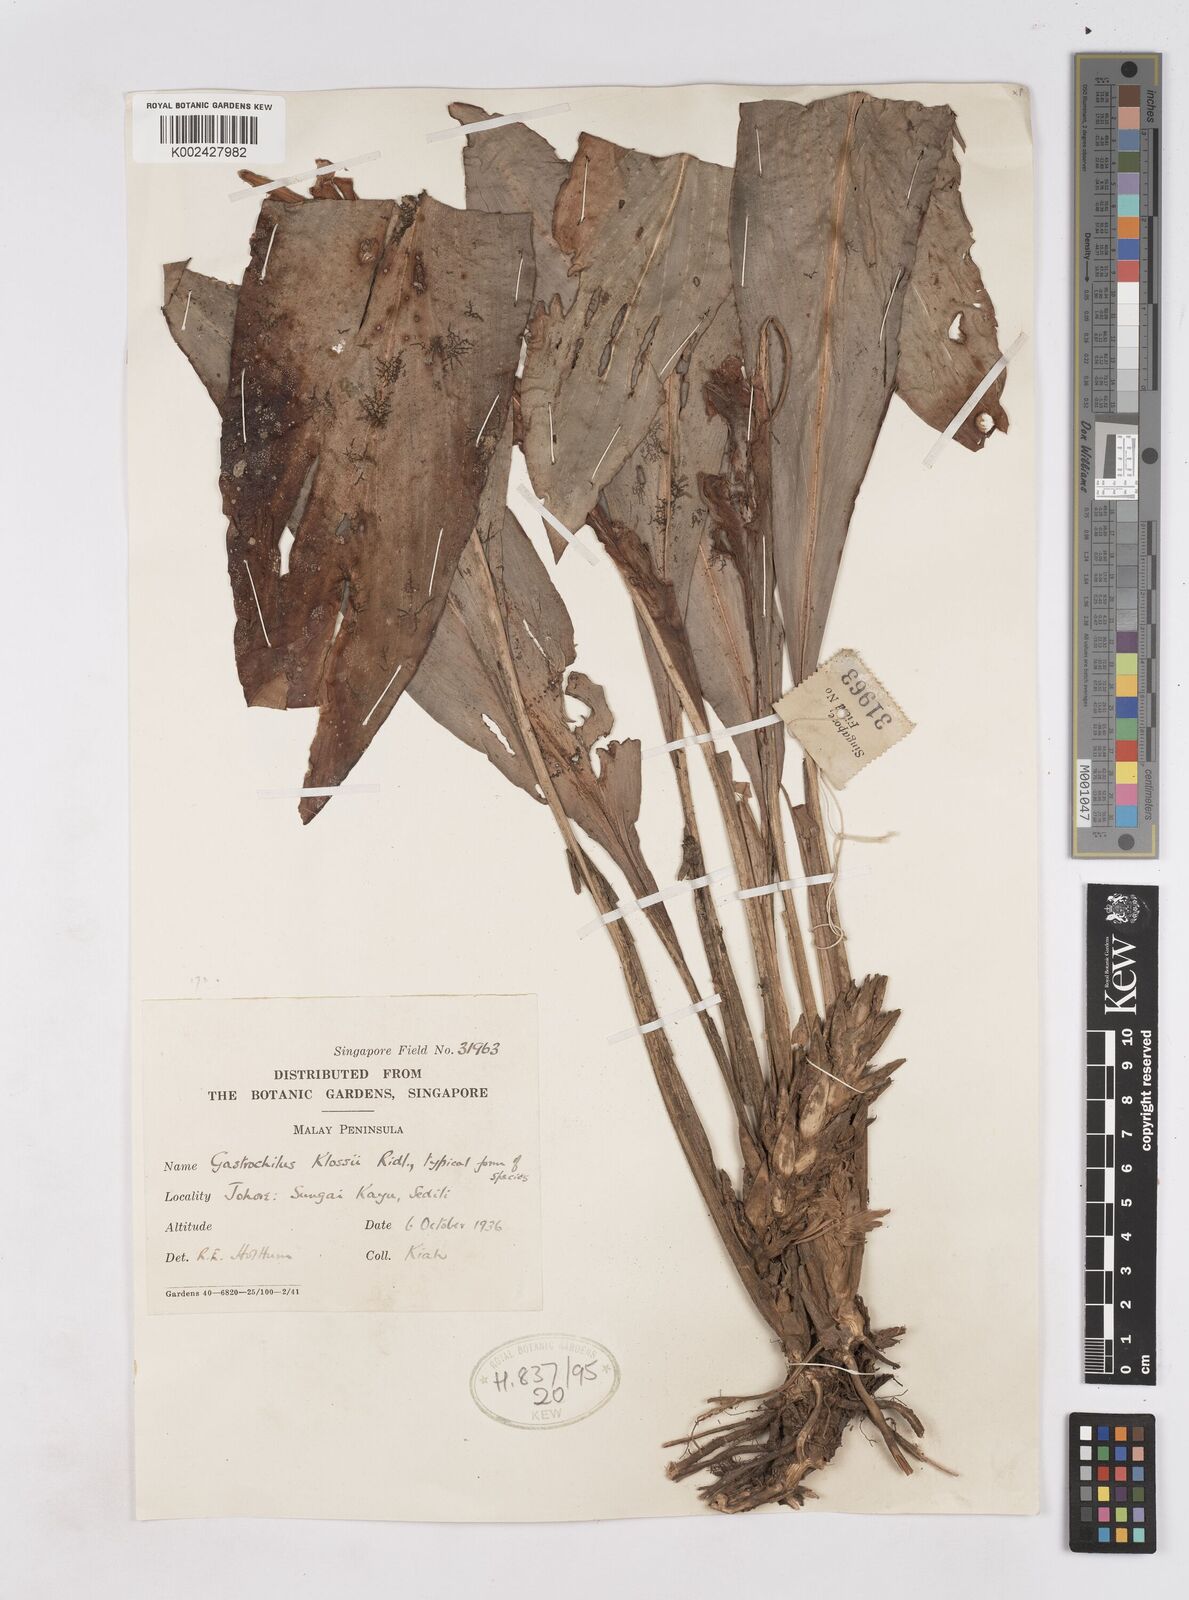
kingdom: Plantae
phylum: Tracheophyta
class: Liliopsida
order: Zingiberales
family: Zingiberaceae
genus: Scaphochlamys
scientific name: Scaphochlamys klossii
